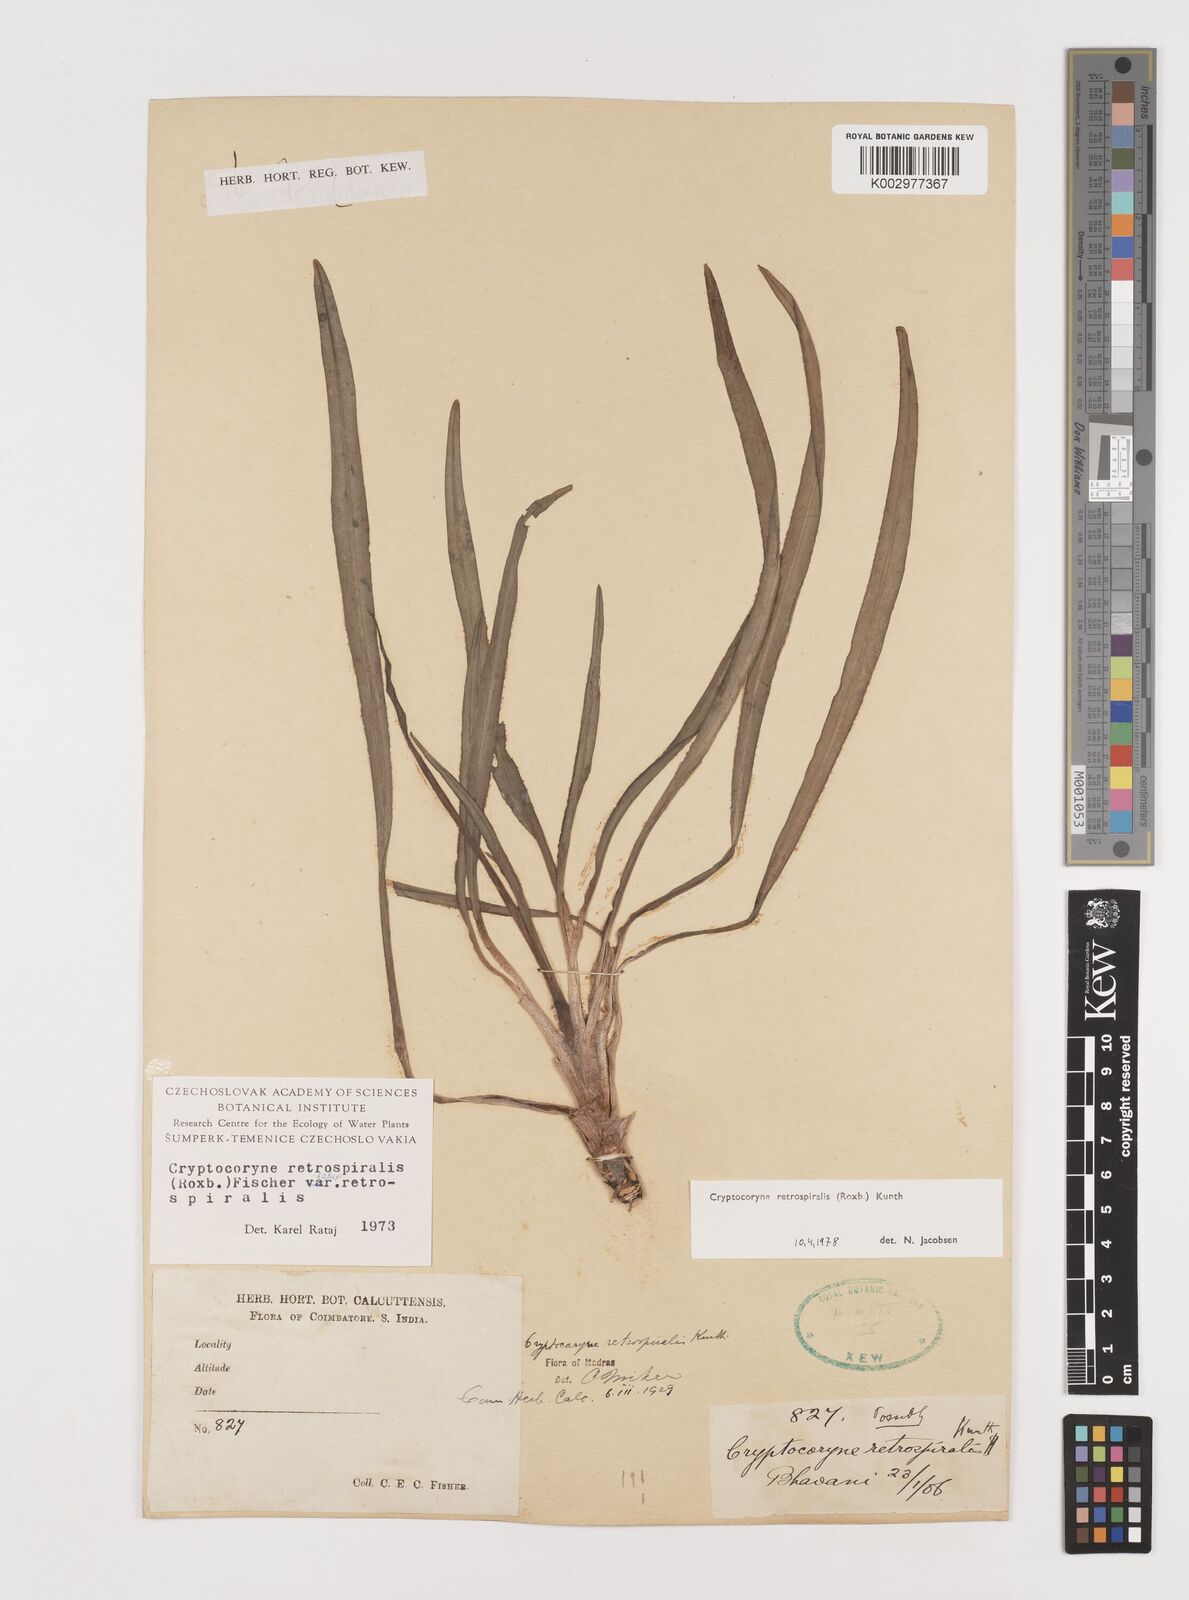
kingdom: Plantae
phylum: Tracheophyta
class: Liliopsida
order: Alismatales
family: Araceae
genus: Cryptocoryne
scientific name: Cryptocoryne retrospiralis
